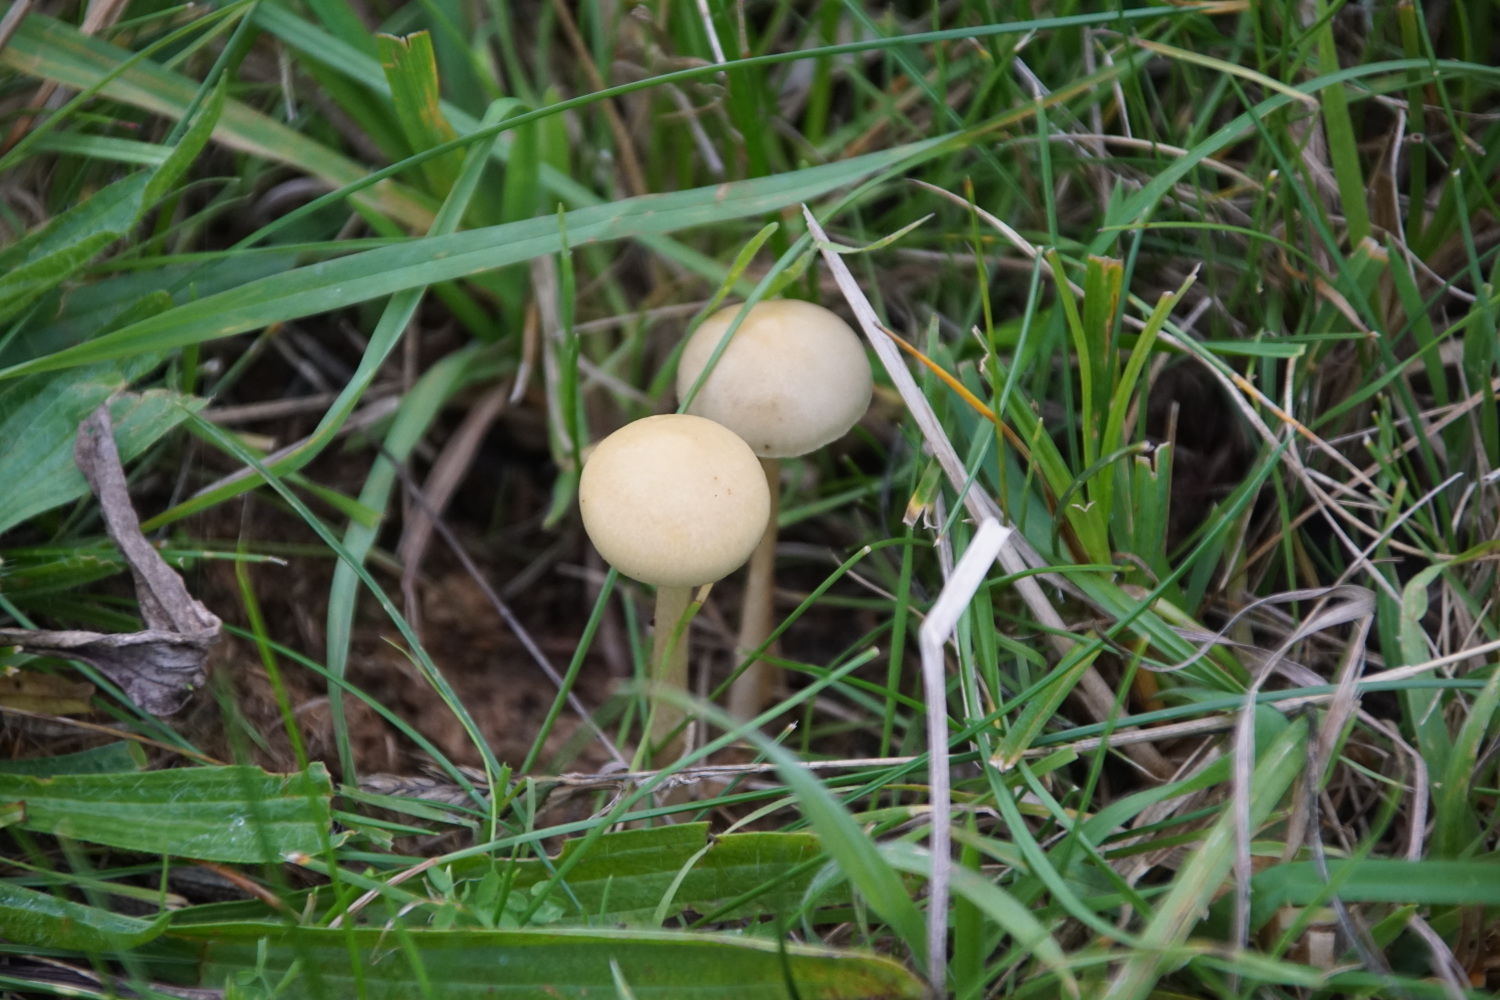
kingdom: Fungi
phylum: Basidiomycota
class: Agaricomycetes
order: Agaricales
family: Strophariaceae
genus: Protostropharia
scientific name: Protostropharia semiglobata
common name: halvkugleformet bredblad
